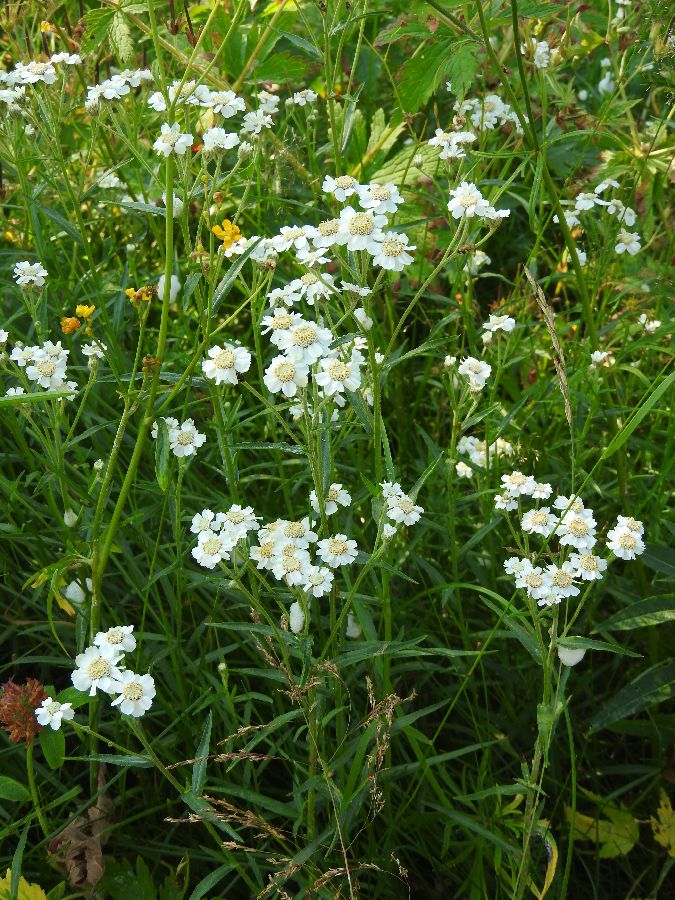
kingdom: Plantae
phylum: Tracheophyta
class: Magnoliopsida
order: Asterales
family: Asteraceae
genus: Achillea
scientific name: Achillea ptarmica
